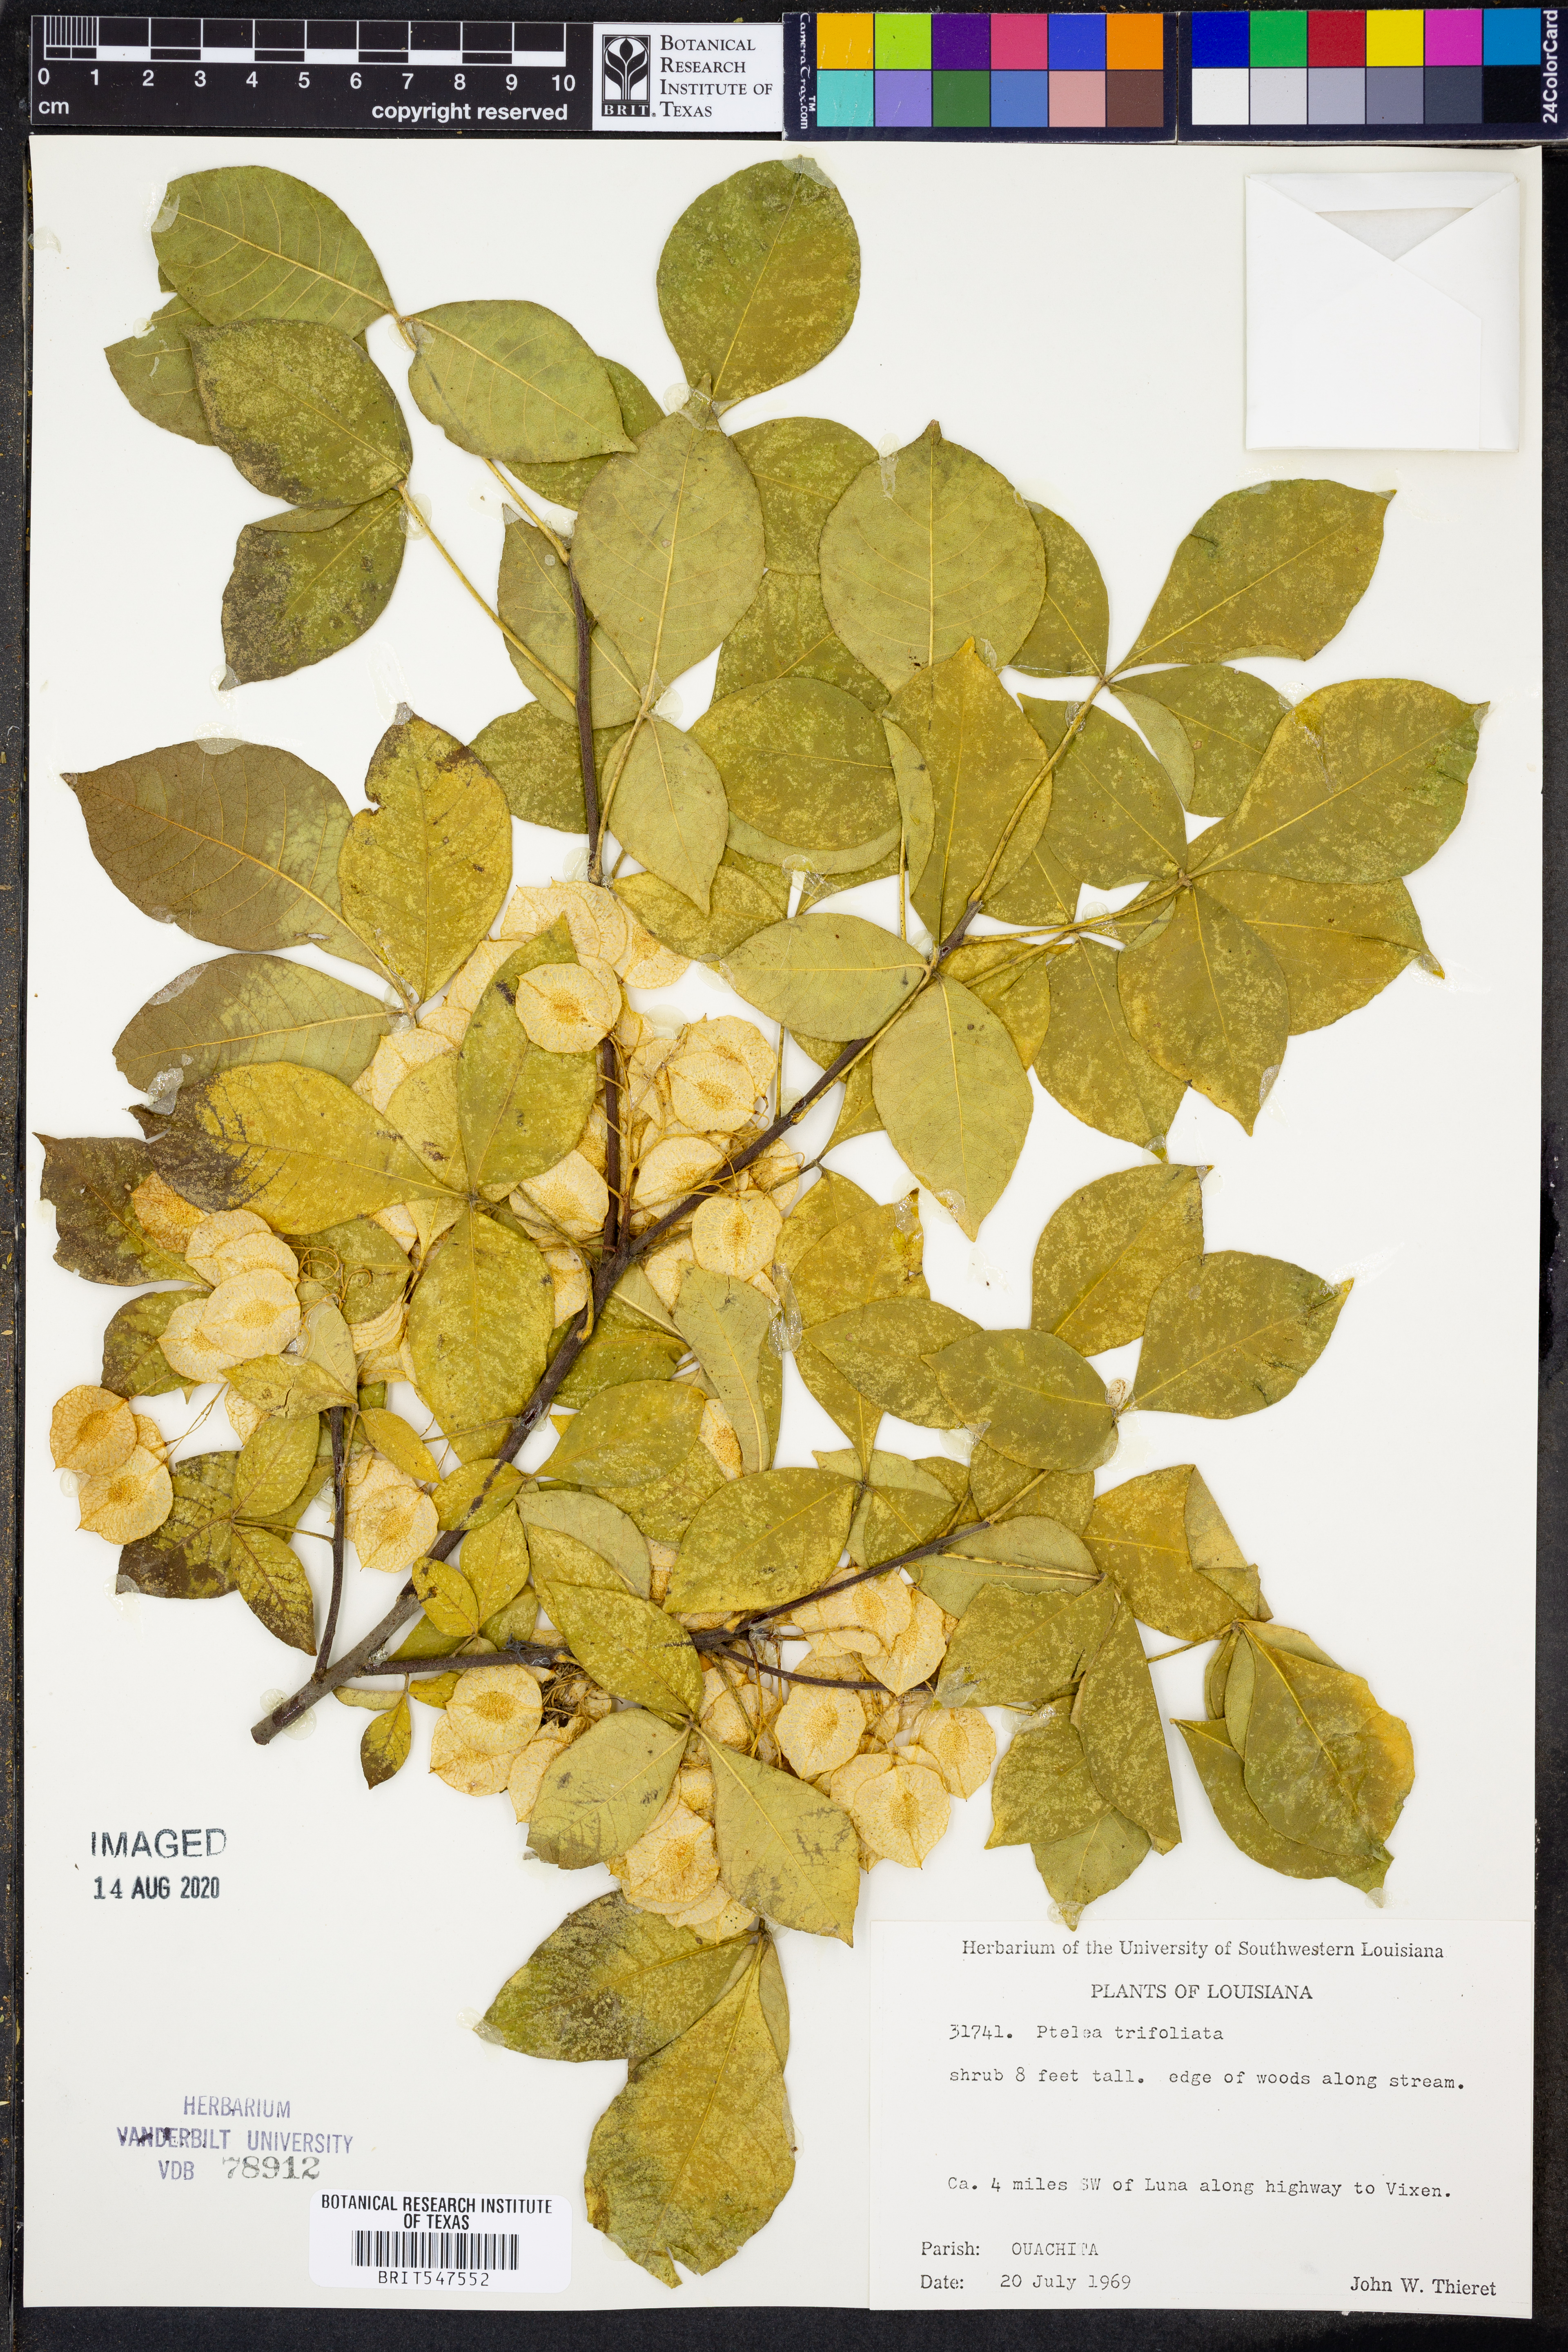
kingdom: Plantae
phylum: Tracheophyta
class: Magnoliopsida
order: Sapindales
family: Rutaceae
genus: Ptelea
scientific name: Ptelea trifoliata
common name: Common hop-tree
